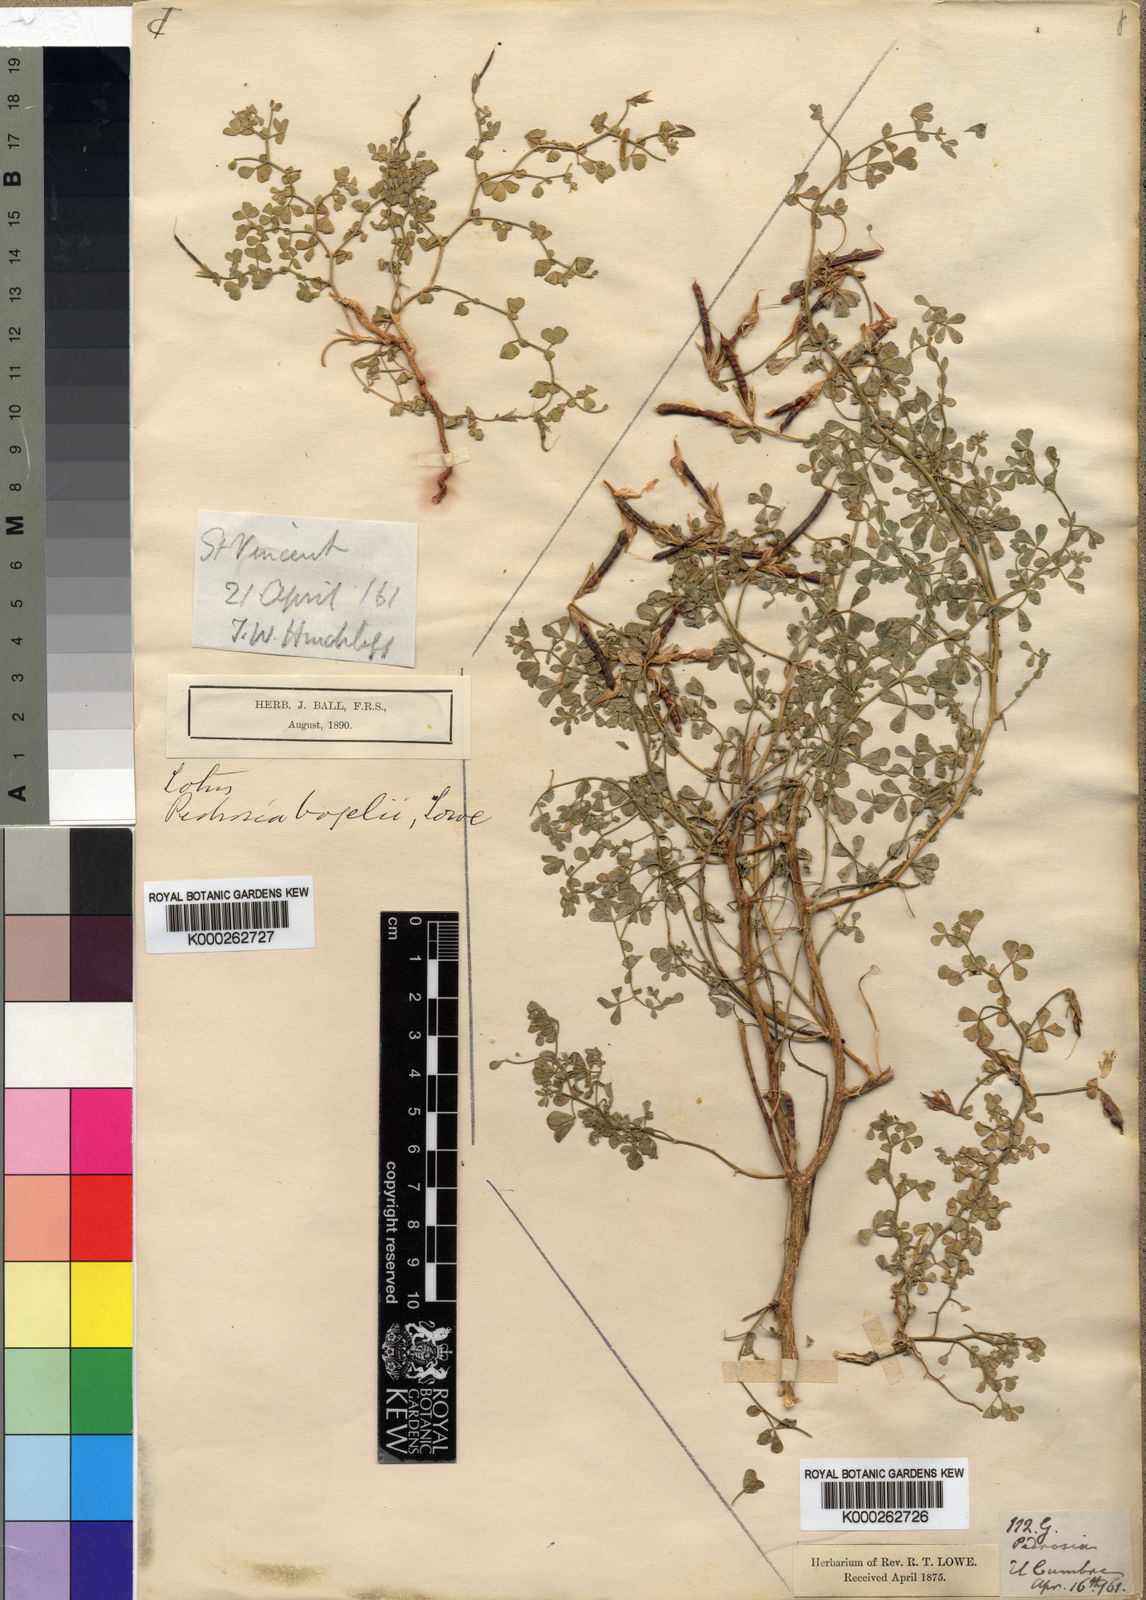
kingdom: Plantae
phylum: Tracheophyta
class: Magnoliopsida
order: Fabales
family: Fabaceae
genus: Lotus
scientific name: Lotus
